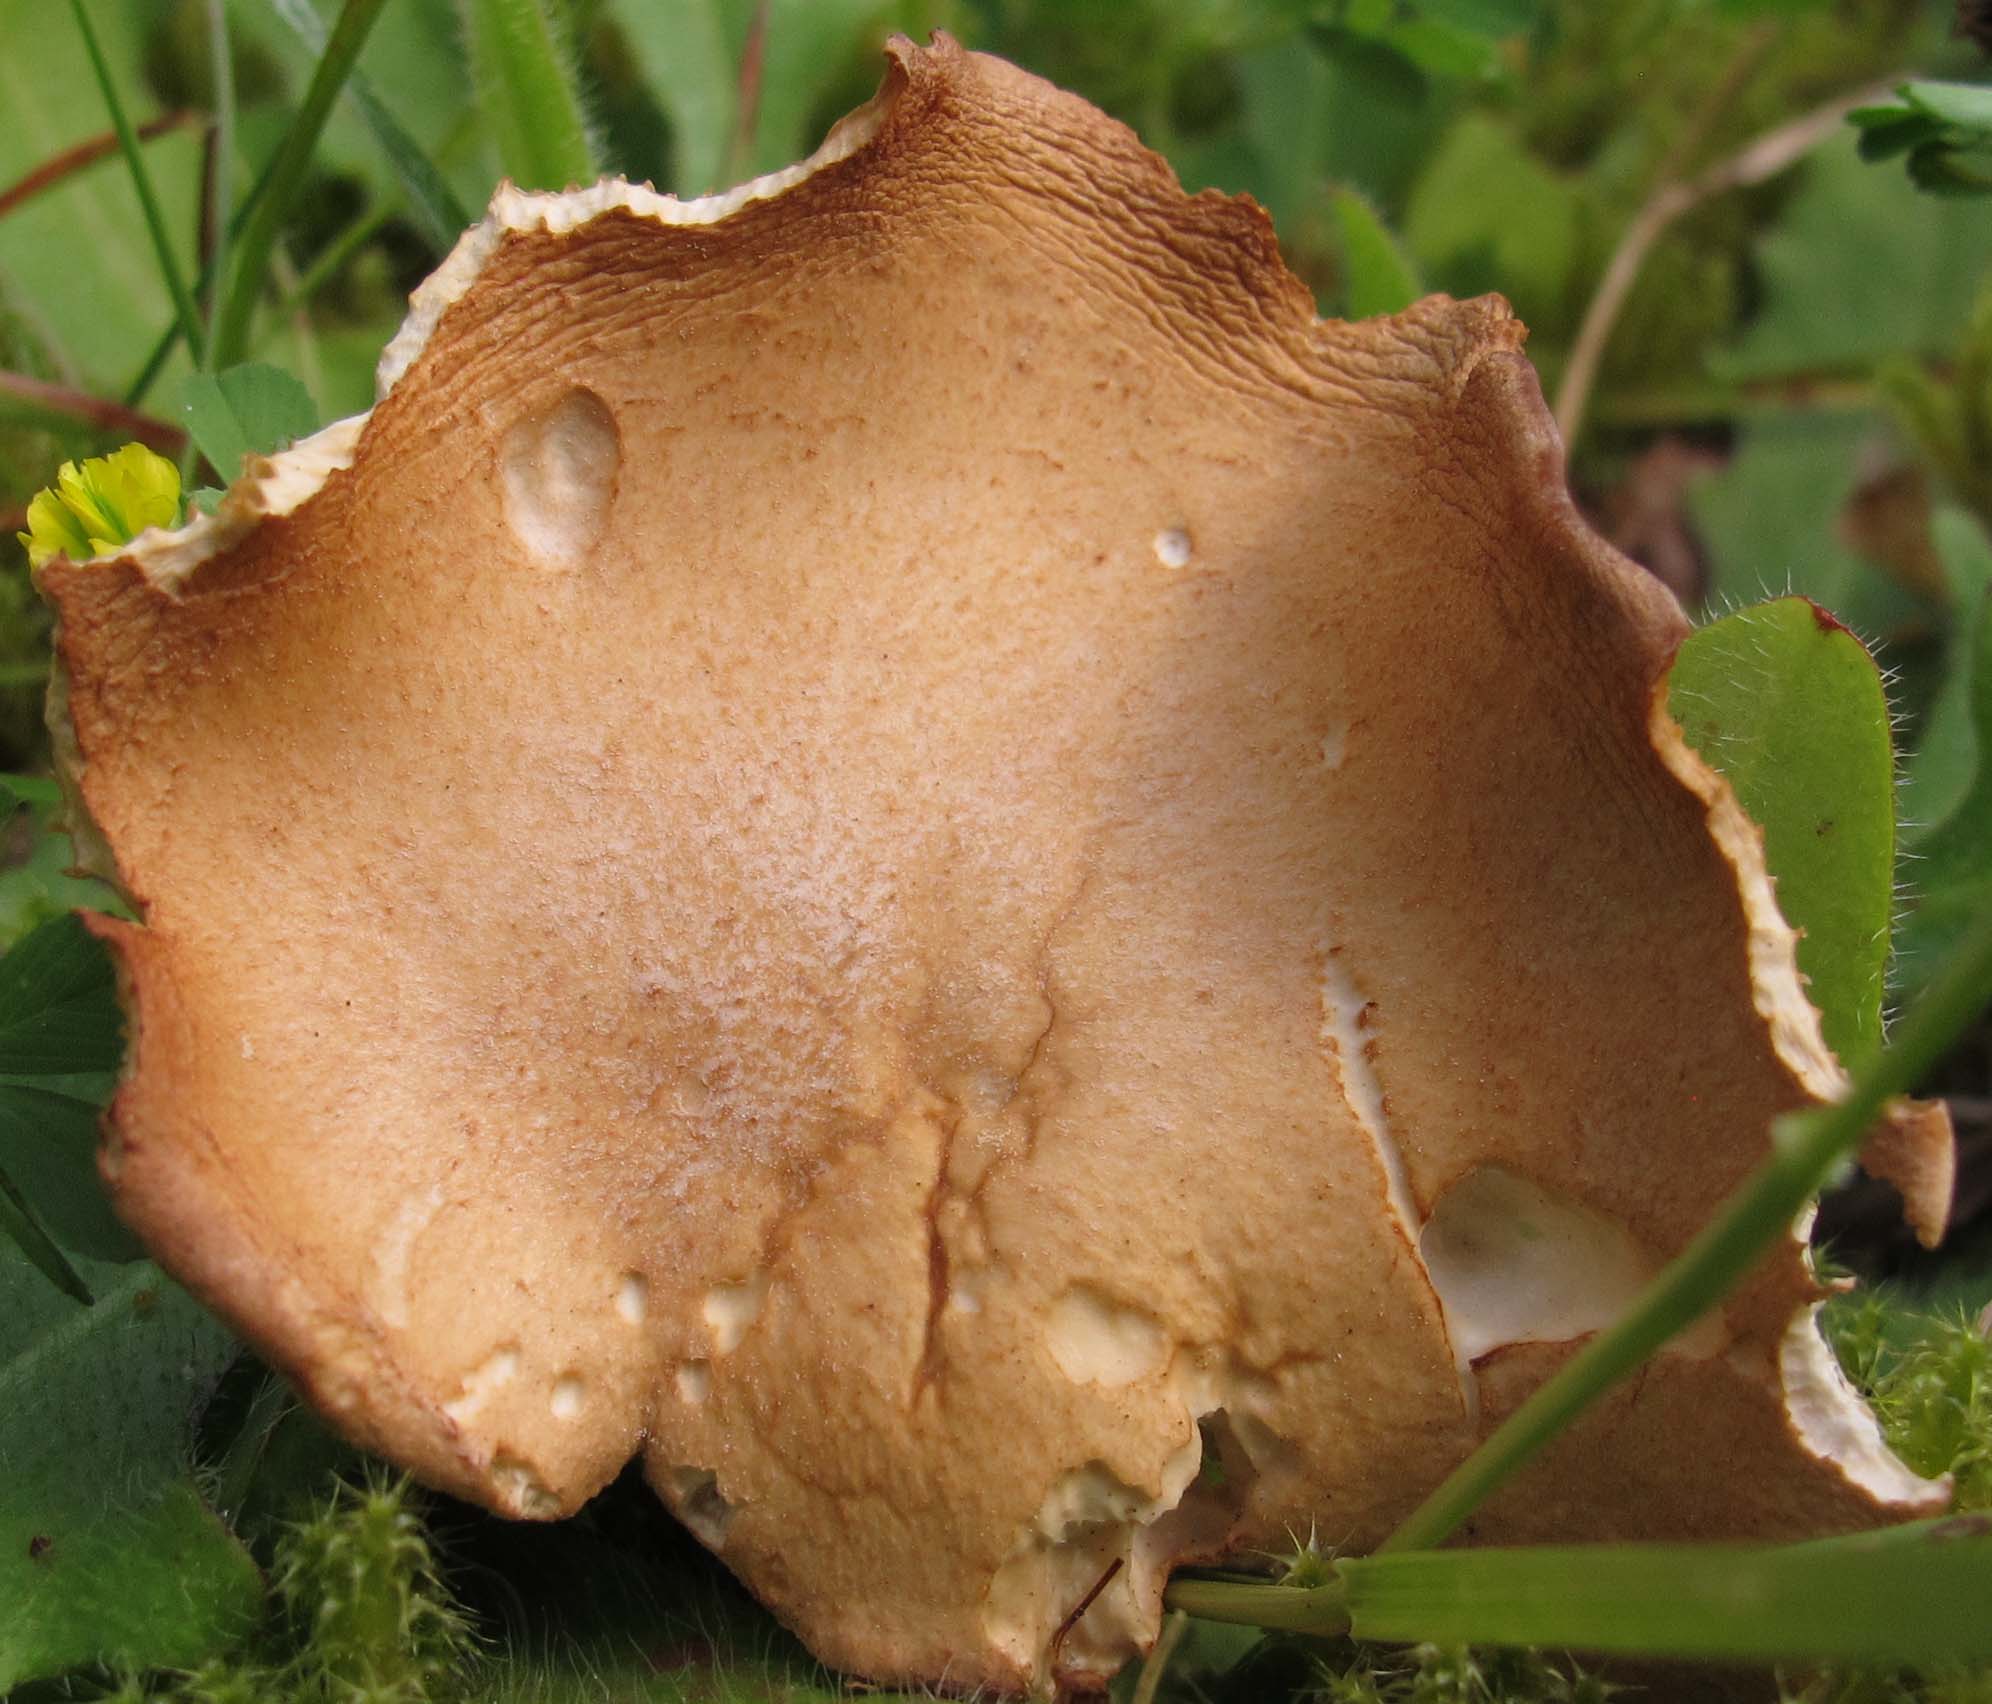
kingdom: Fungi
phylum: Basidiomycota
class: Agaricomycetes
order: Agaricales
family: Tricholomataceae
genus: Infundibulicybe
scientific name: Infundibulicybe squamulosa
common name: småskællet tragthat
